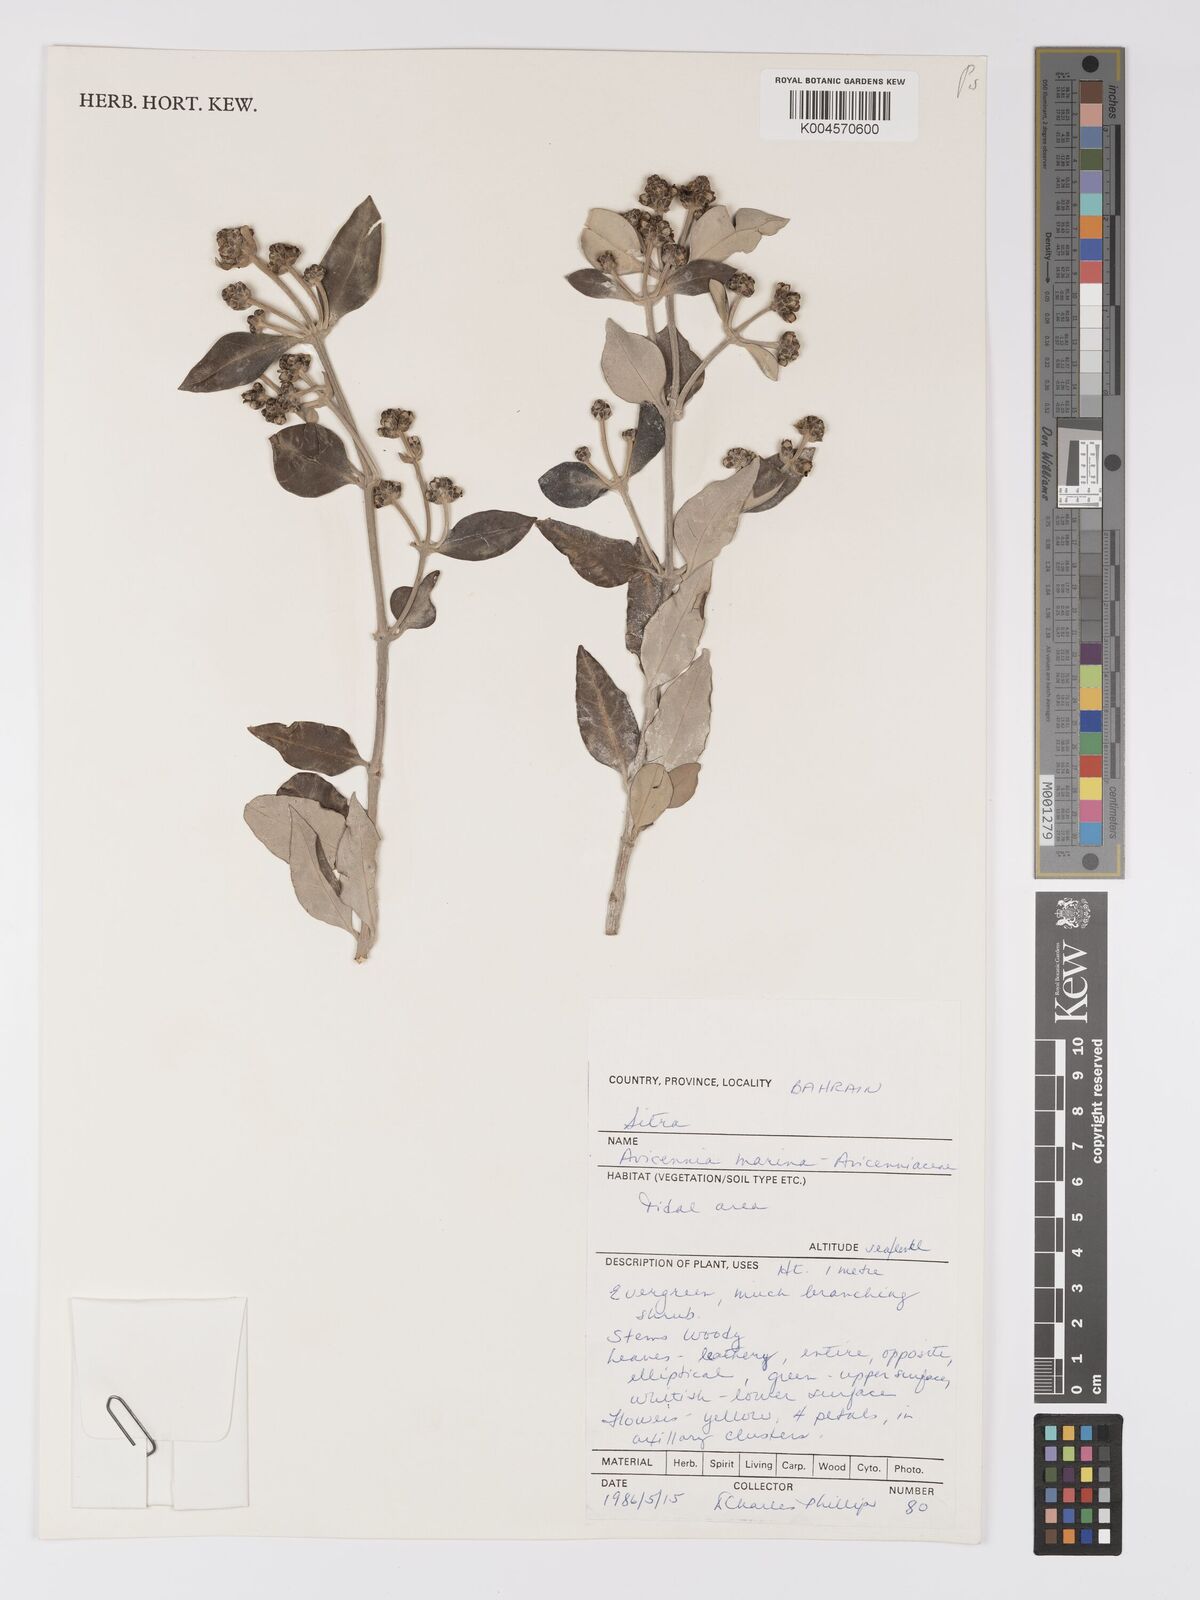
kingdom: Plantae
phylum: Tracheophyta
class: Magnoliopsida
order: Lamiales
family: Acanthaceae
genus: Avicennia
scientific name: Avicennia
